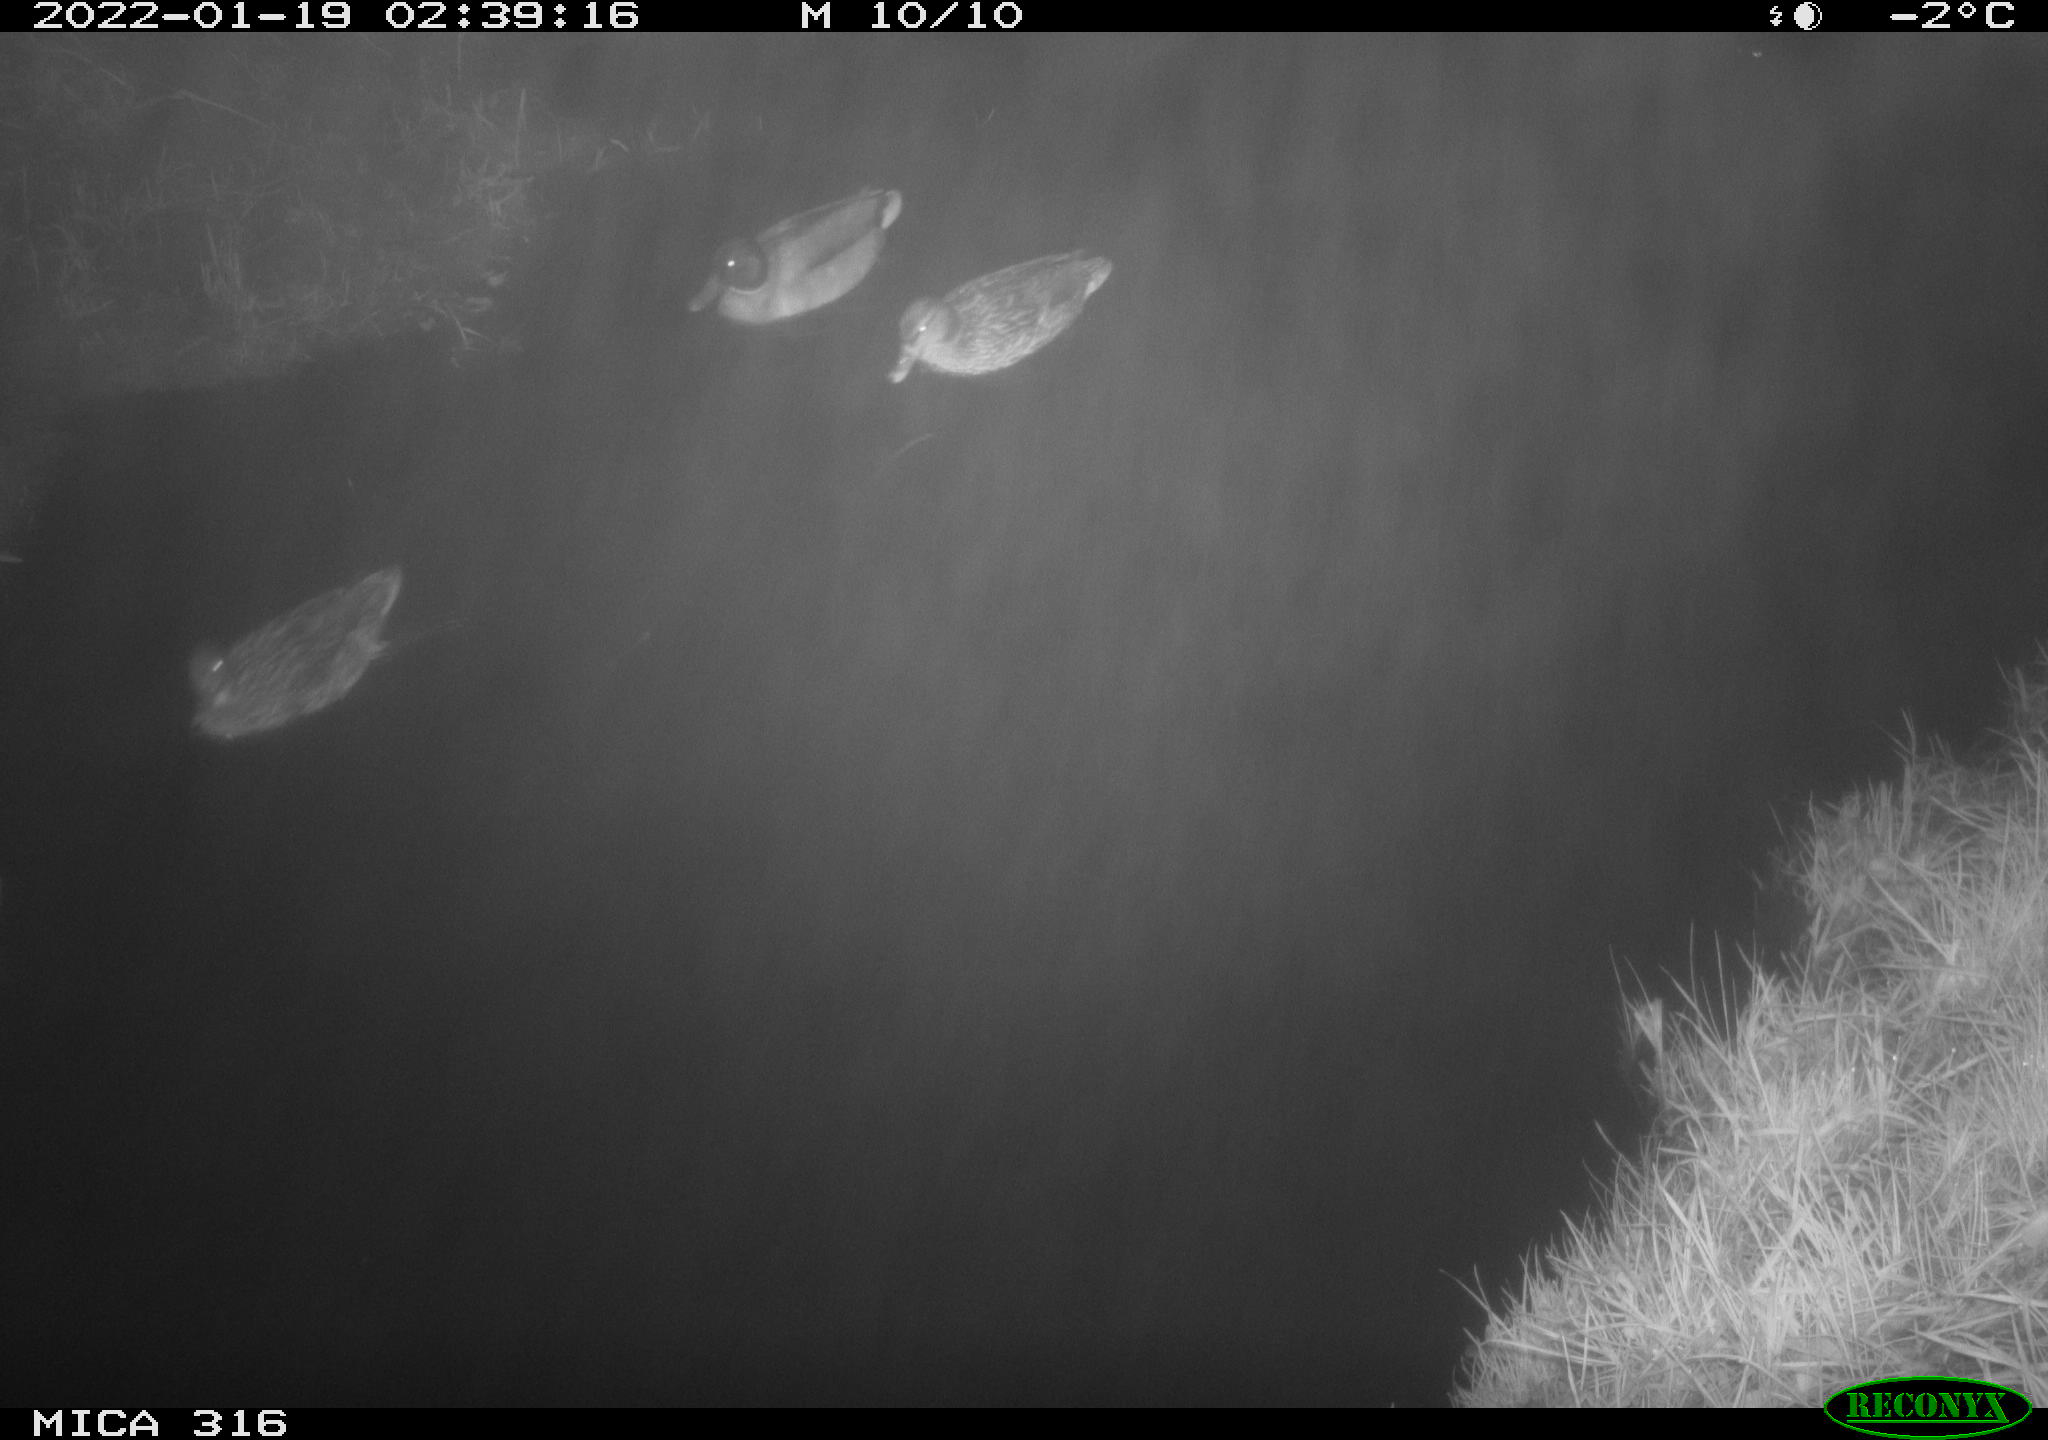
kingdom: Animalia
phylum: Chordata
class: Aves
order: Anseriformes
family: Anatidae
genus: Anas
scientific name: Anas
